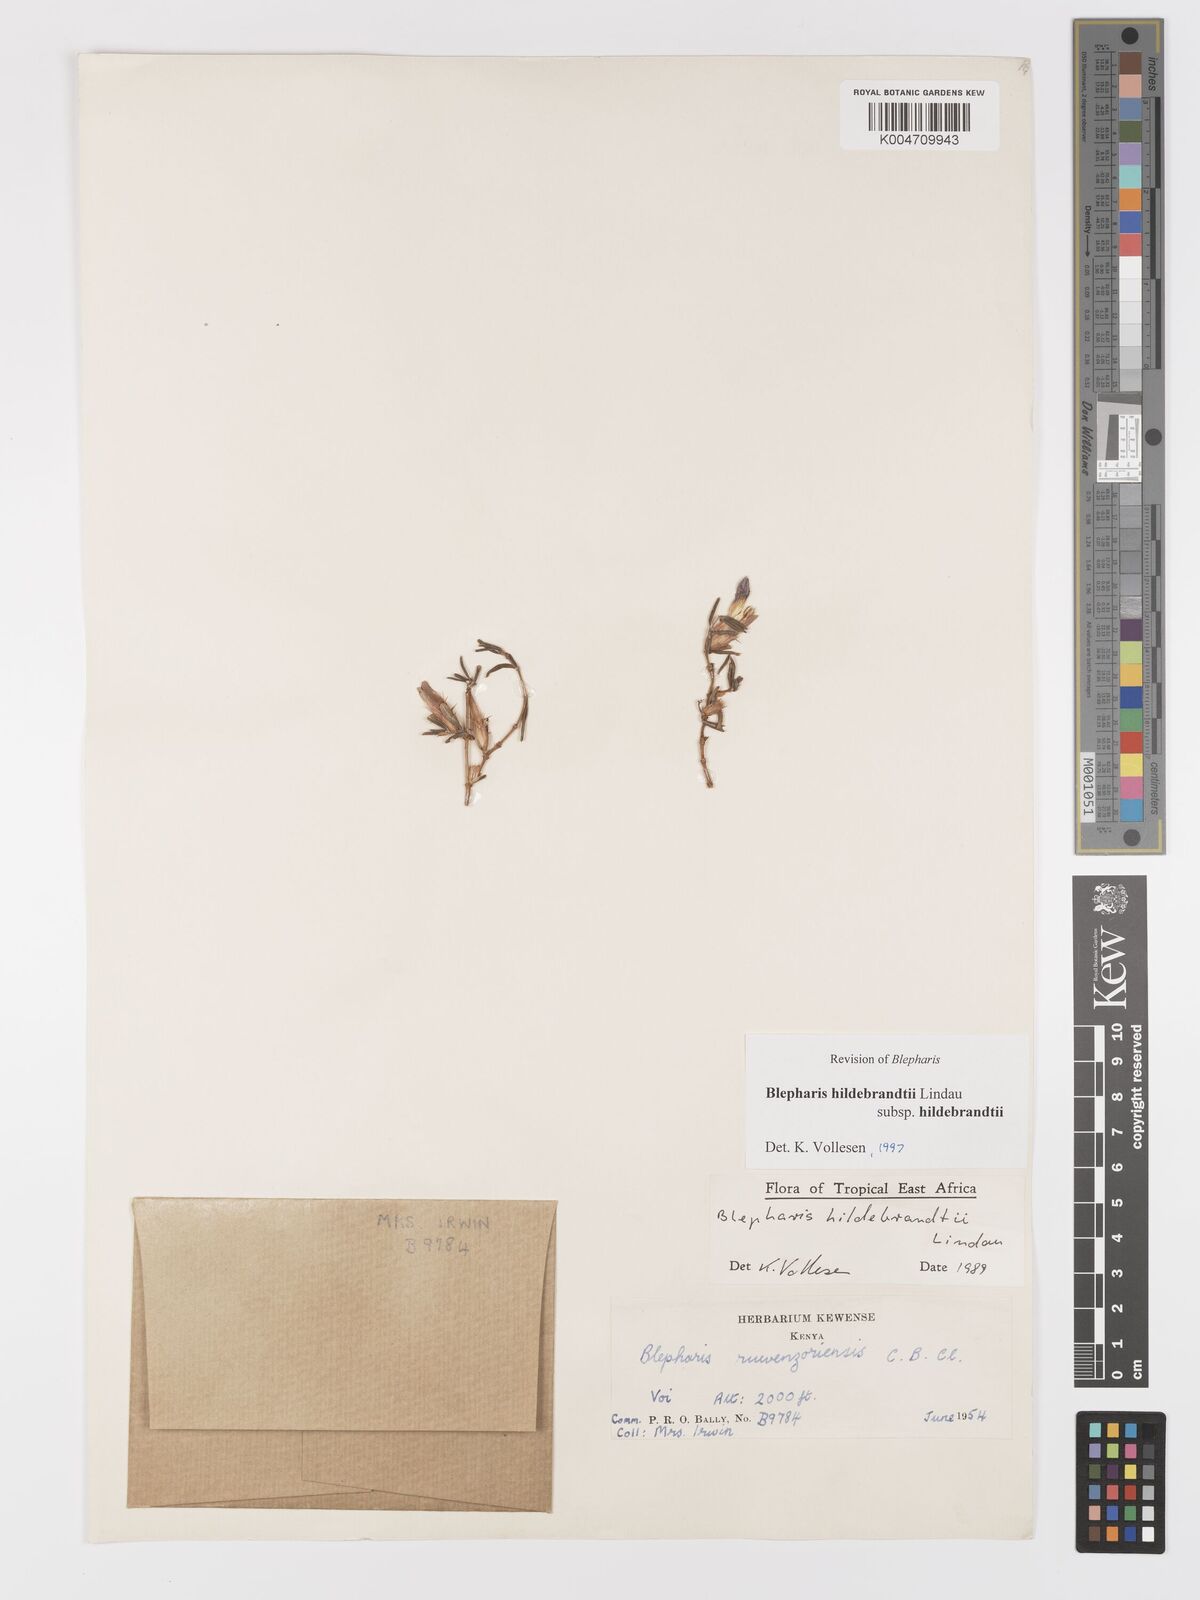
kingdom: Plantae
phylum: Tracheophyta
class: Magnoliopsida
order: Lamiales
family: Acanthaceae
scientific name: Acanthaceae
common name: Acanthaceae
